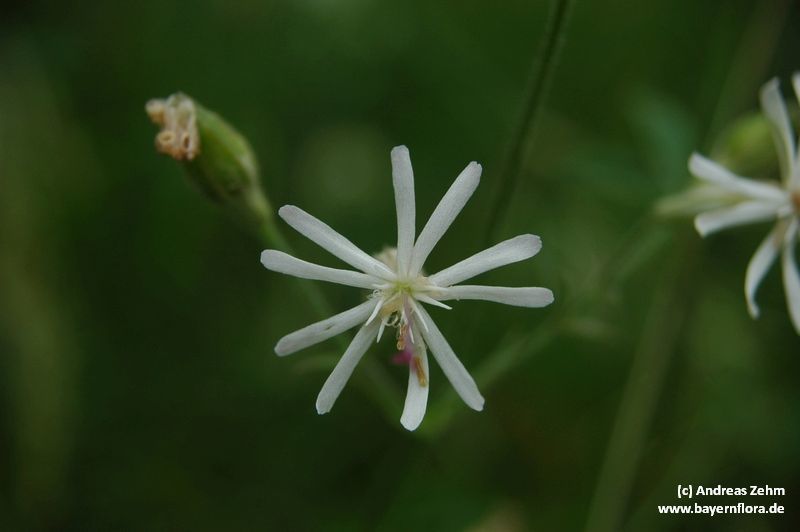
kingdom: Plantae
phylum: Tracheophyta
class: Magnoliopsida
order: Caryophyllales
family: Caryophyllaceae
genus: Silene
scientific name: Silene nutans
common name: Nottingham catchfly
